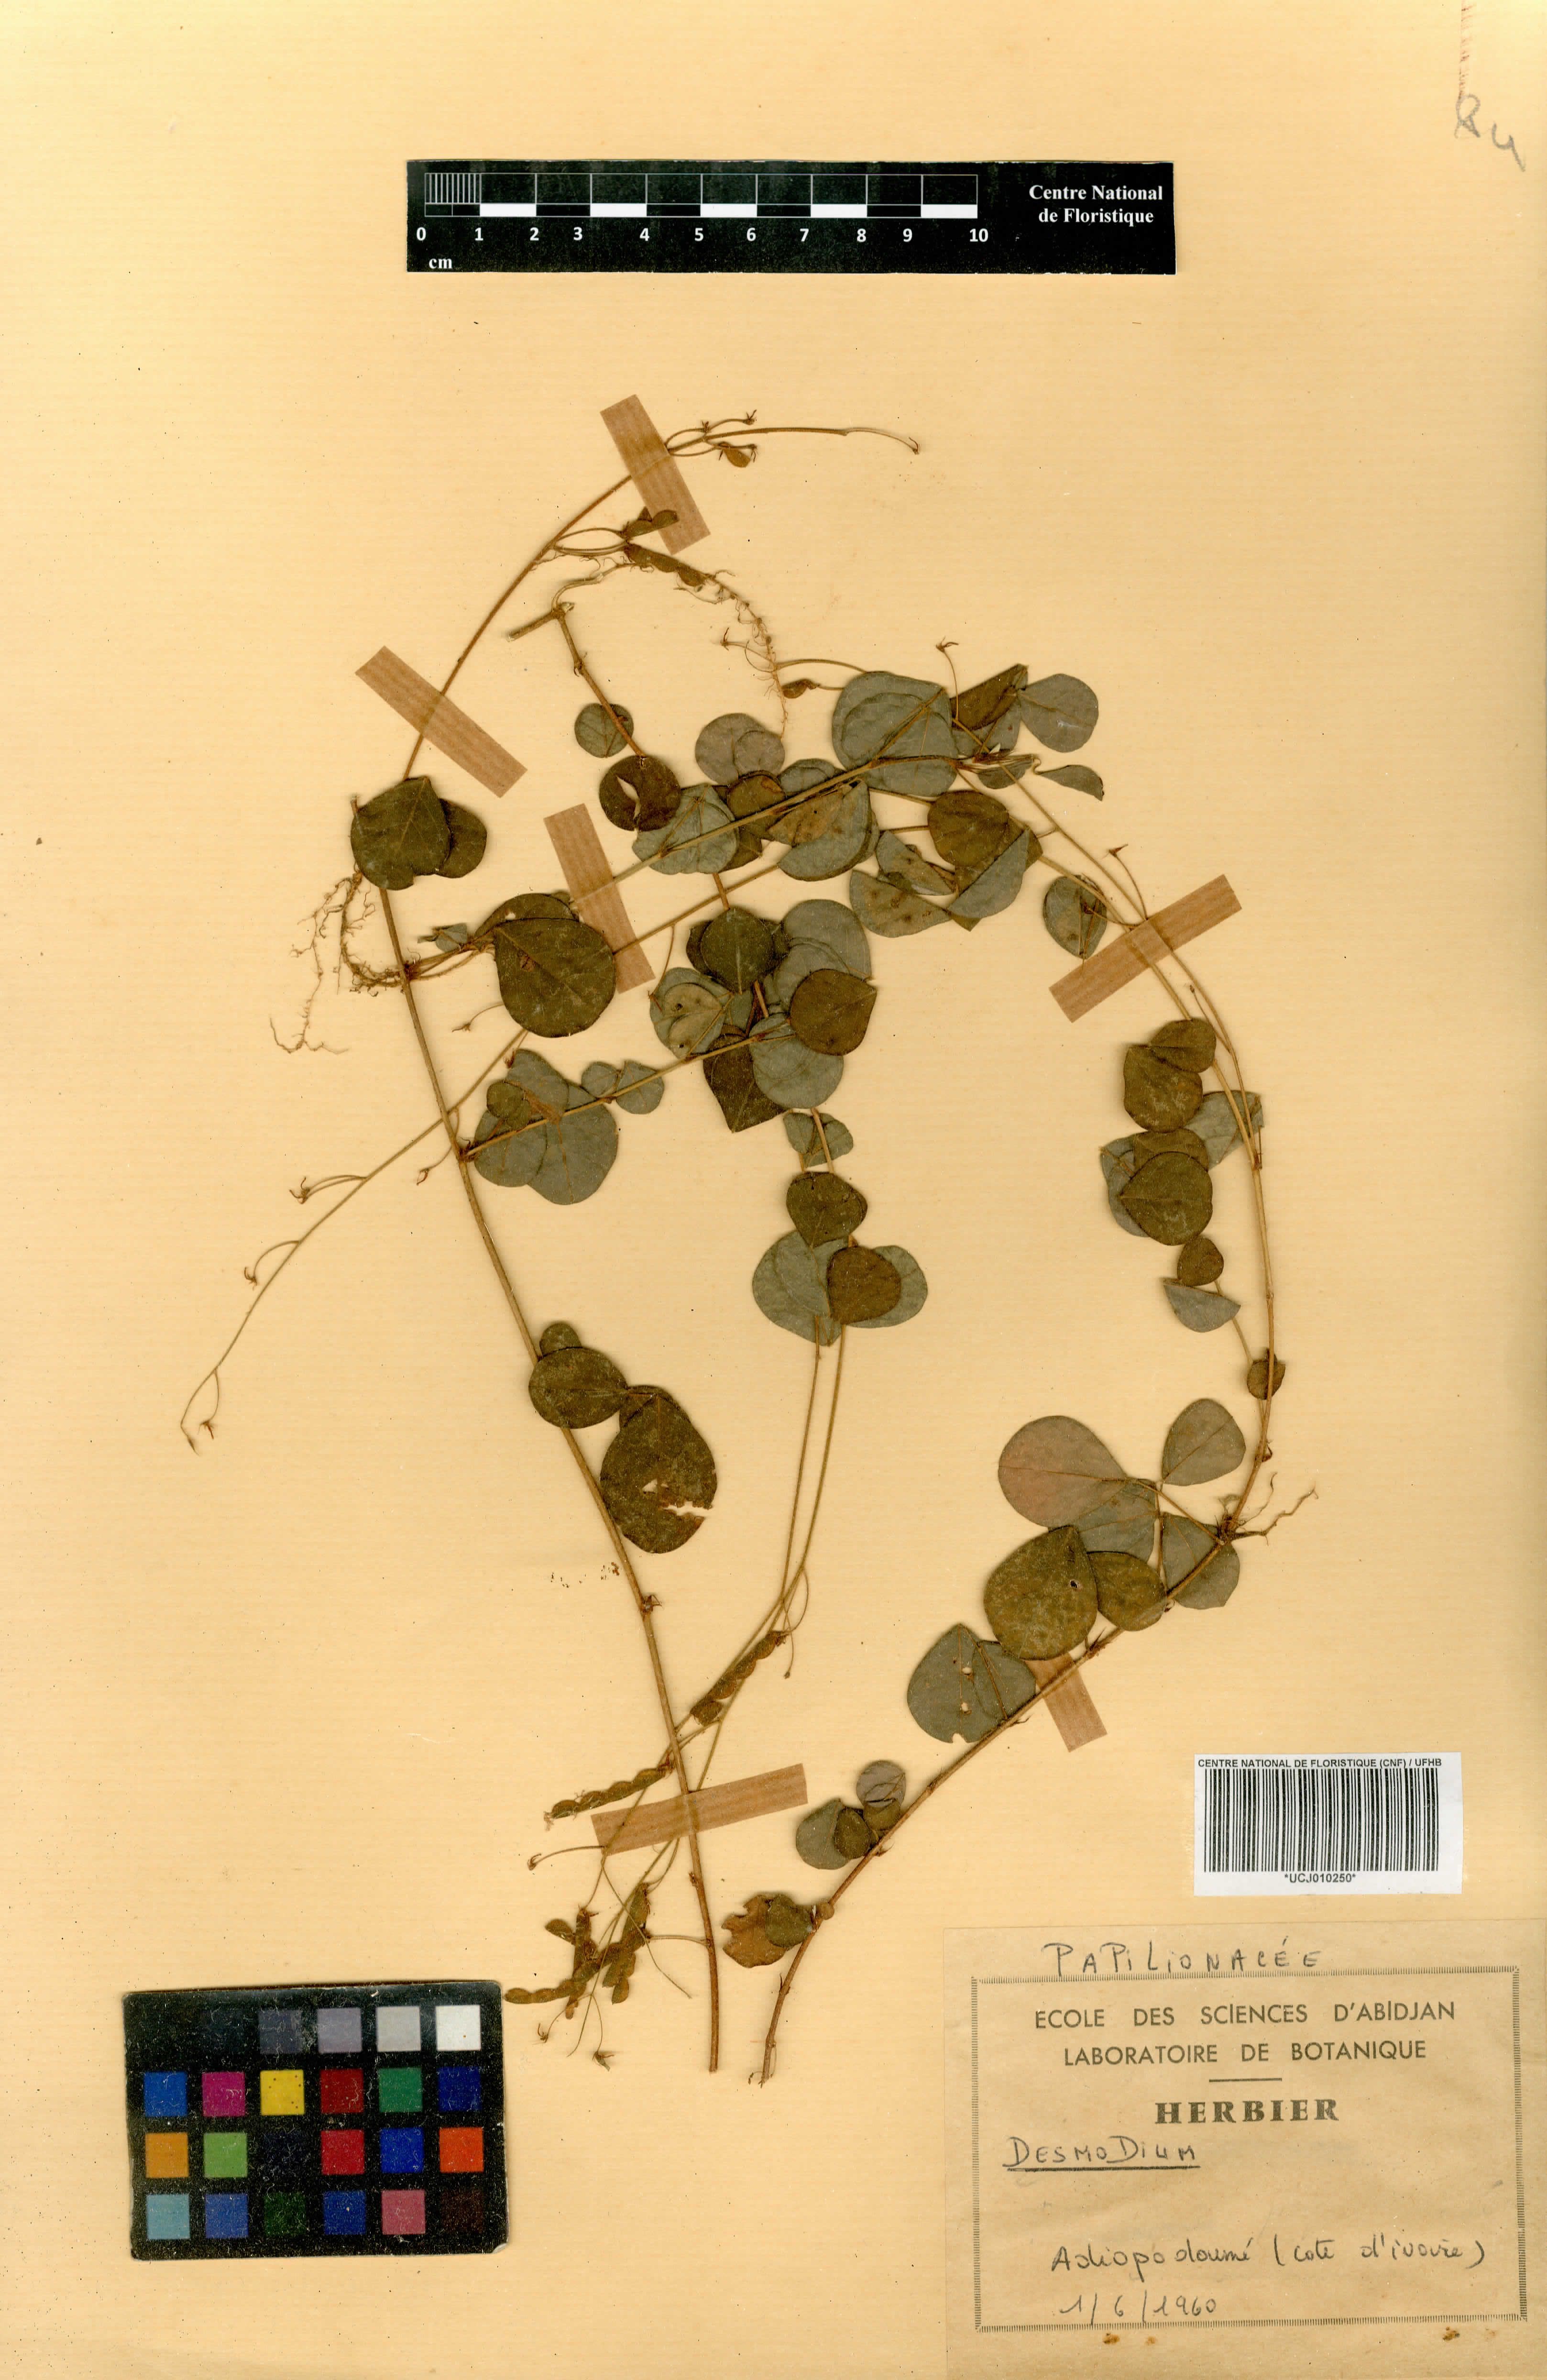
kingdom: Plantae
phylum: Tracheophyta
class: Magnoliopsida
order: Fabales
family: Fabaceae
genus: Grona
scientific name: Grona adscendens
